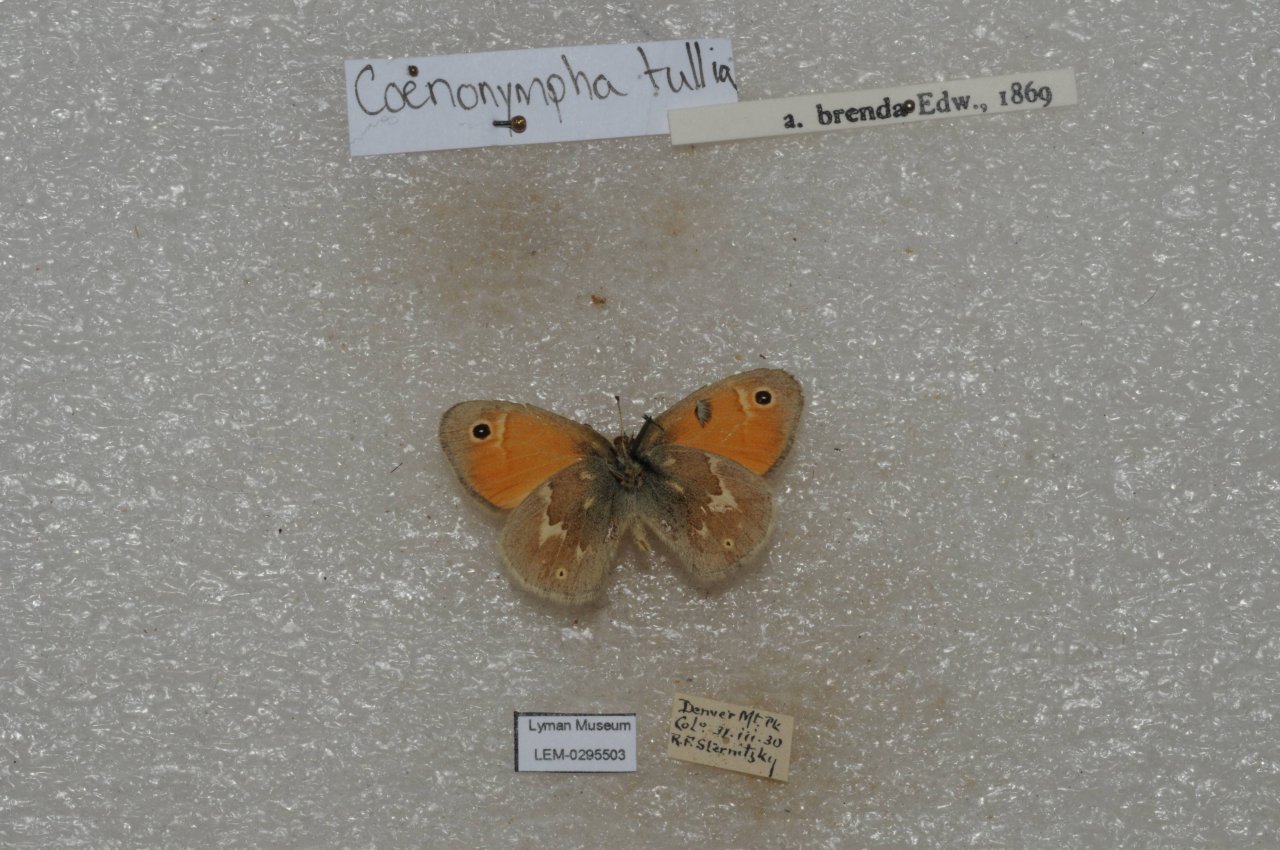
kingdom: Animalia
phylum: Arthropoda
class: Insecta
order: Lepidoptera
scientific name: Lepidoptera
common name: Butterflies
